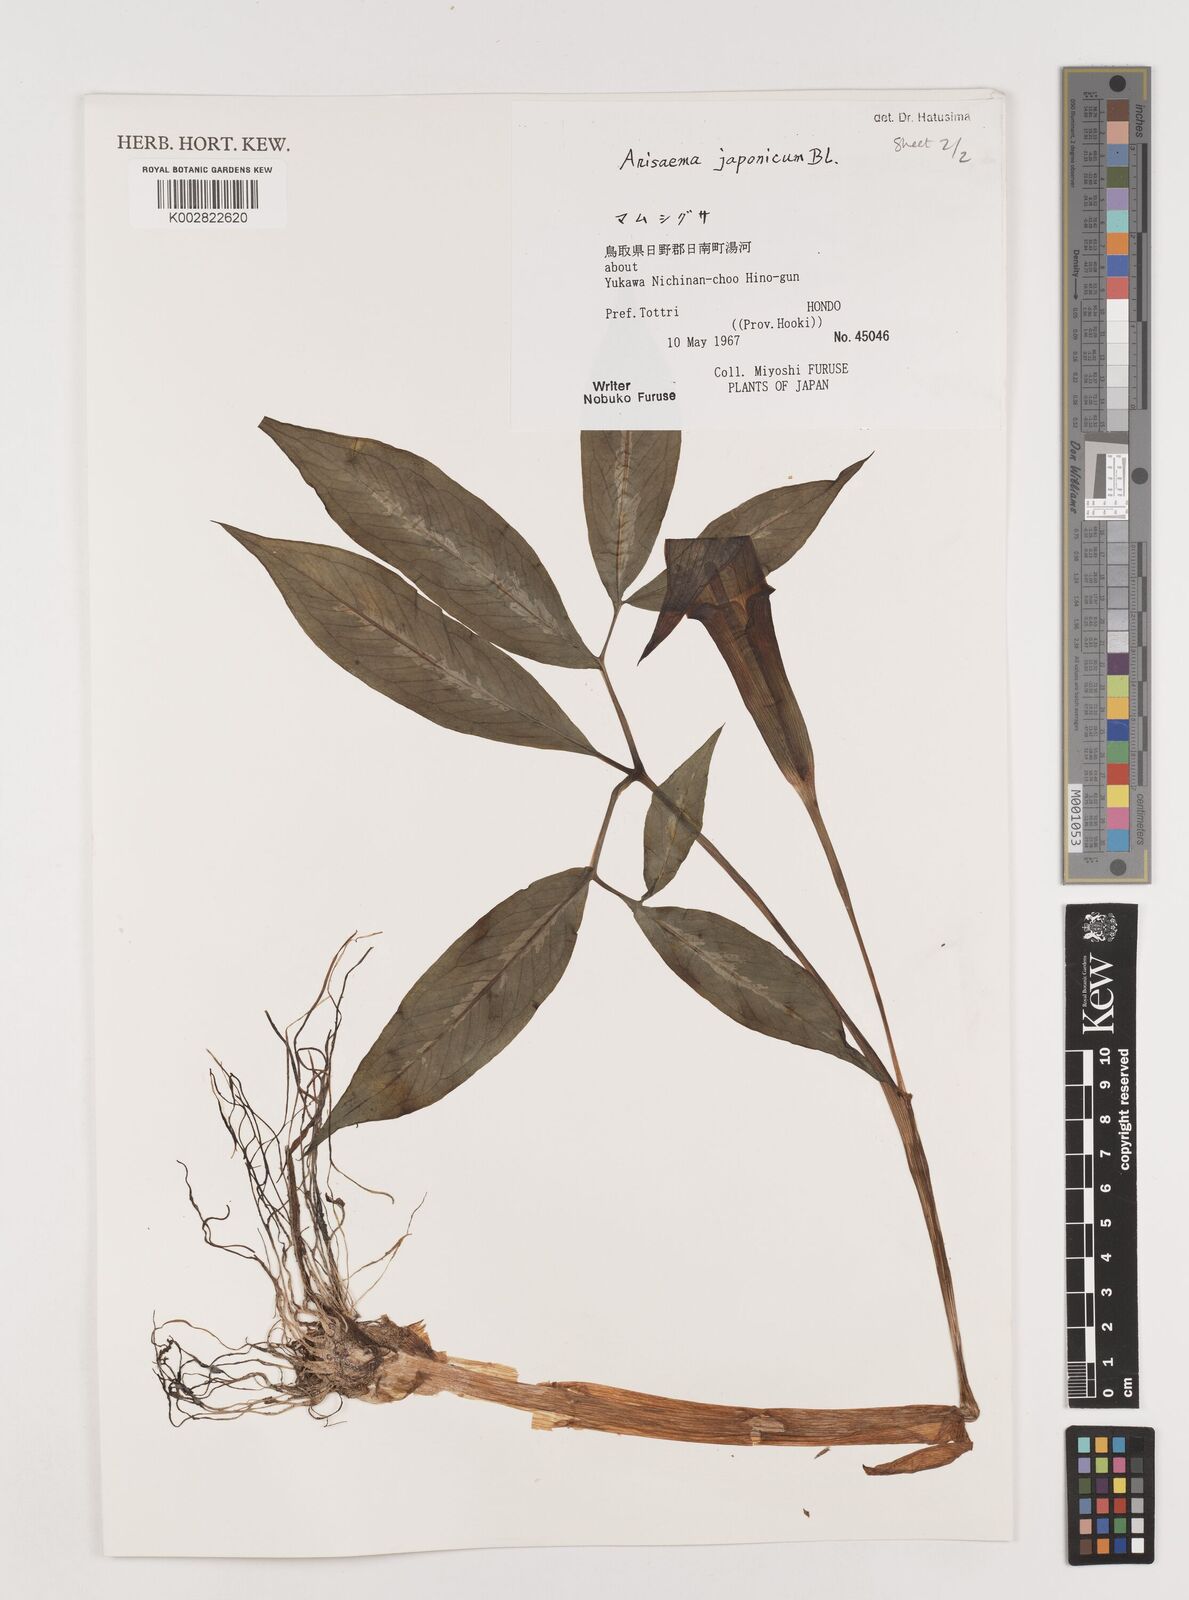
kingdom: Plantae
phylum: Tracheophyta
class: Liliopsida
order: Alismatales
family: Araceae
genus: Arisaema
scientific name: Arisaema serratum
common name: Japanese arisaema
